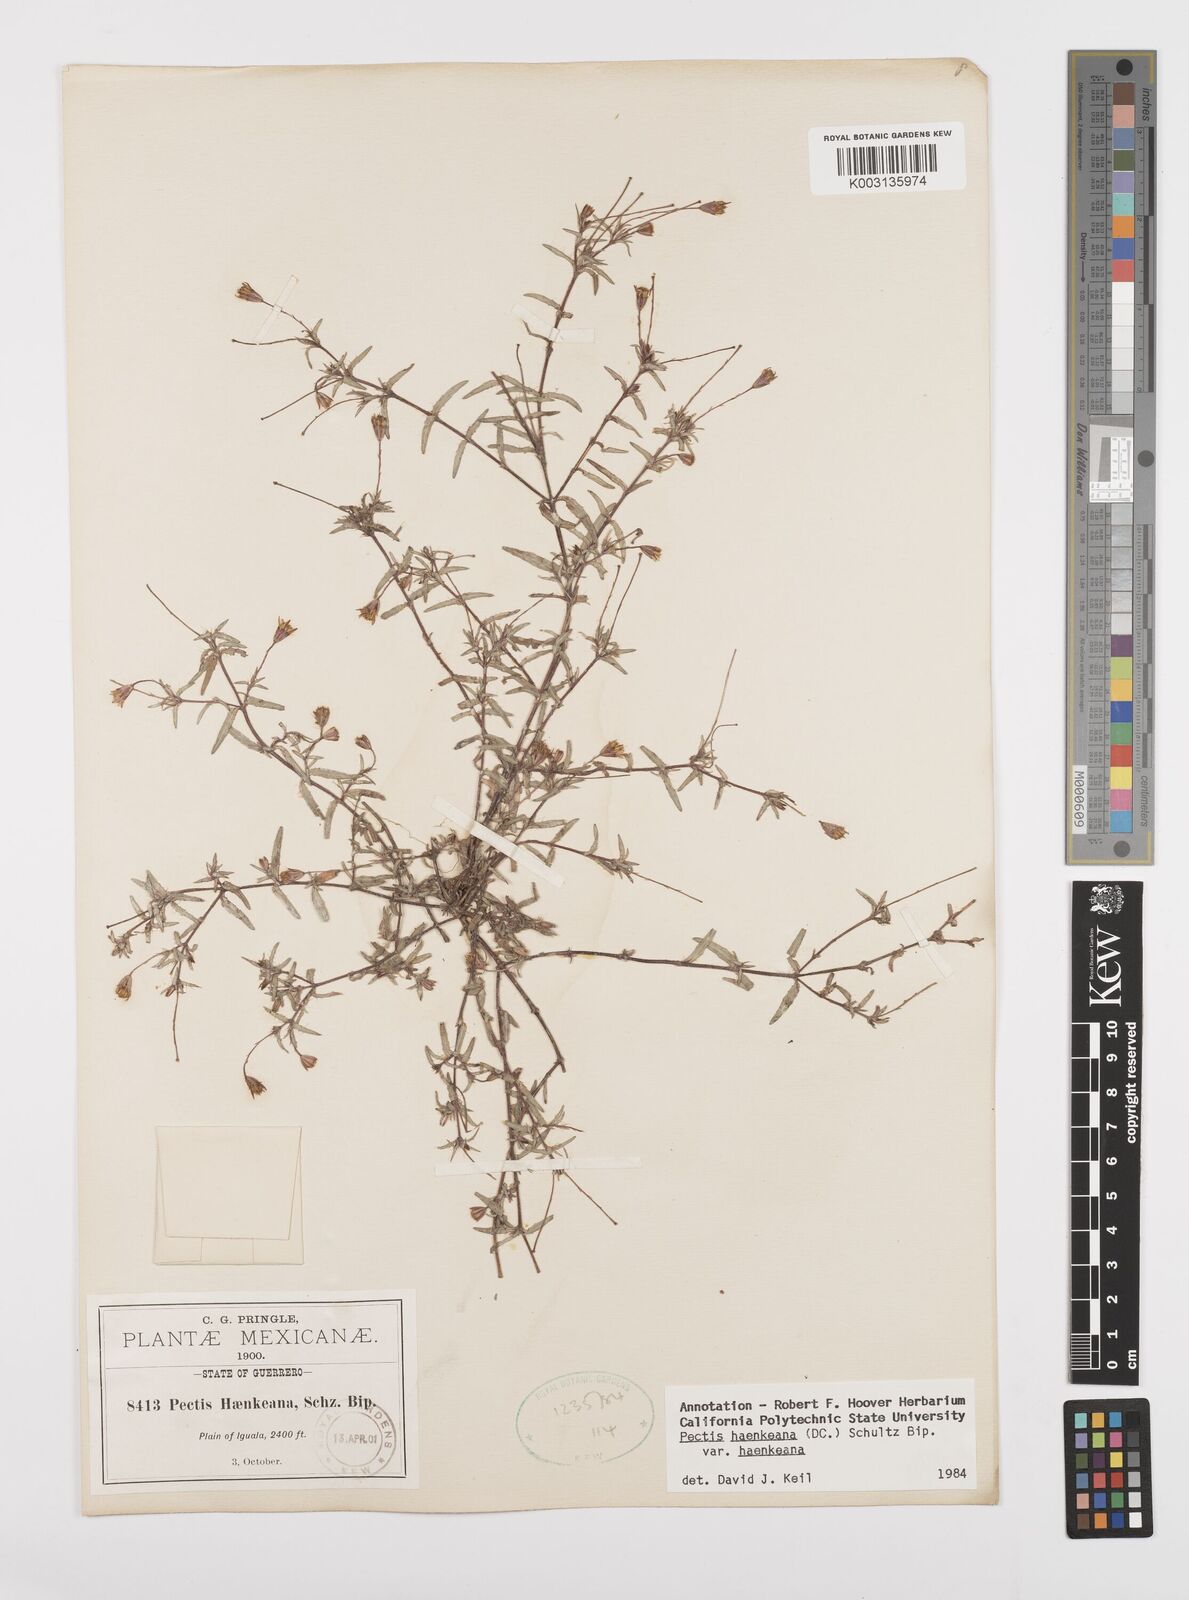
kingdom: Plantae
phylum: Tracheophyta
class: Magnoliopsida
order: Asterales
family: Asteraceae
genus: Pectis
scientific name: Pectis haenkeana
